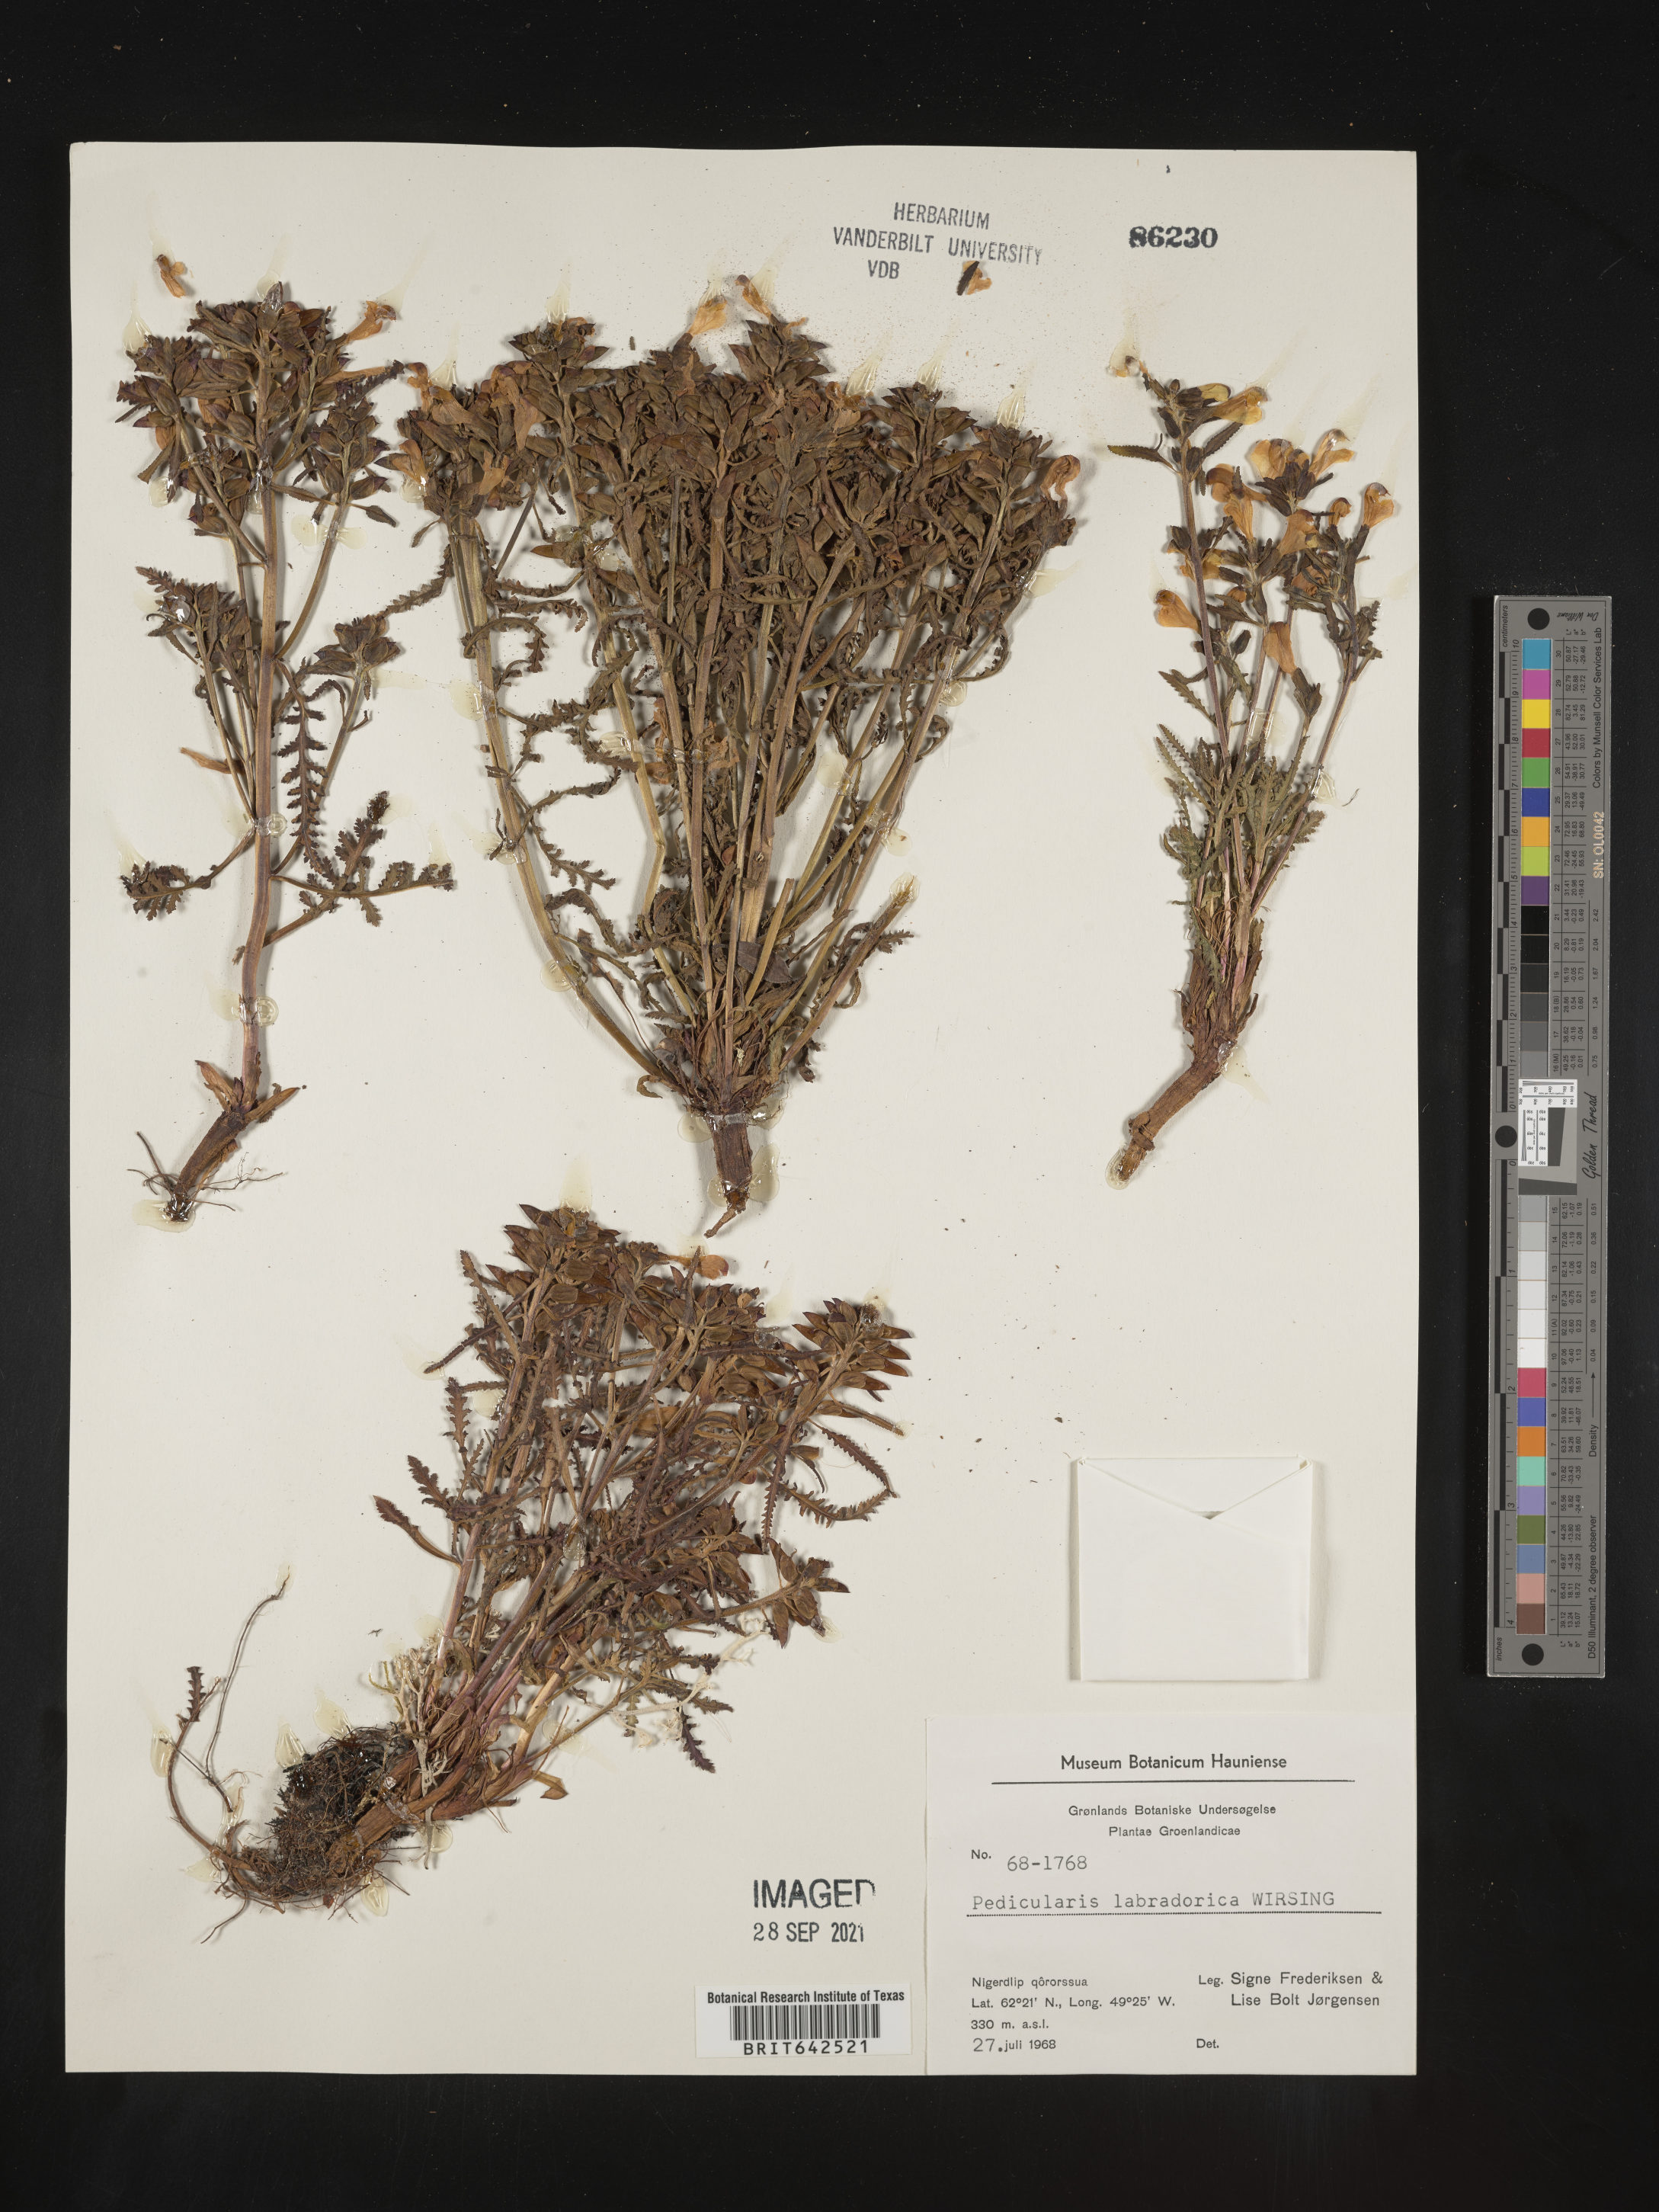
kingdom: Plantae
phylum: Tracheophyta
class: Magnoliopsida
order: Lamiales
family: Orobanchaceae
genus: Pedicularis
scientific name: Pedicularis
